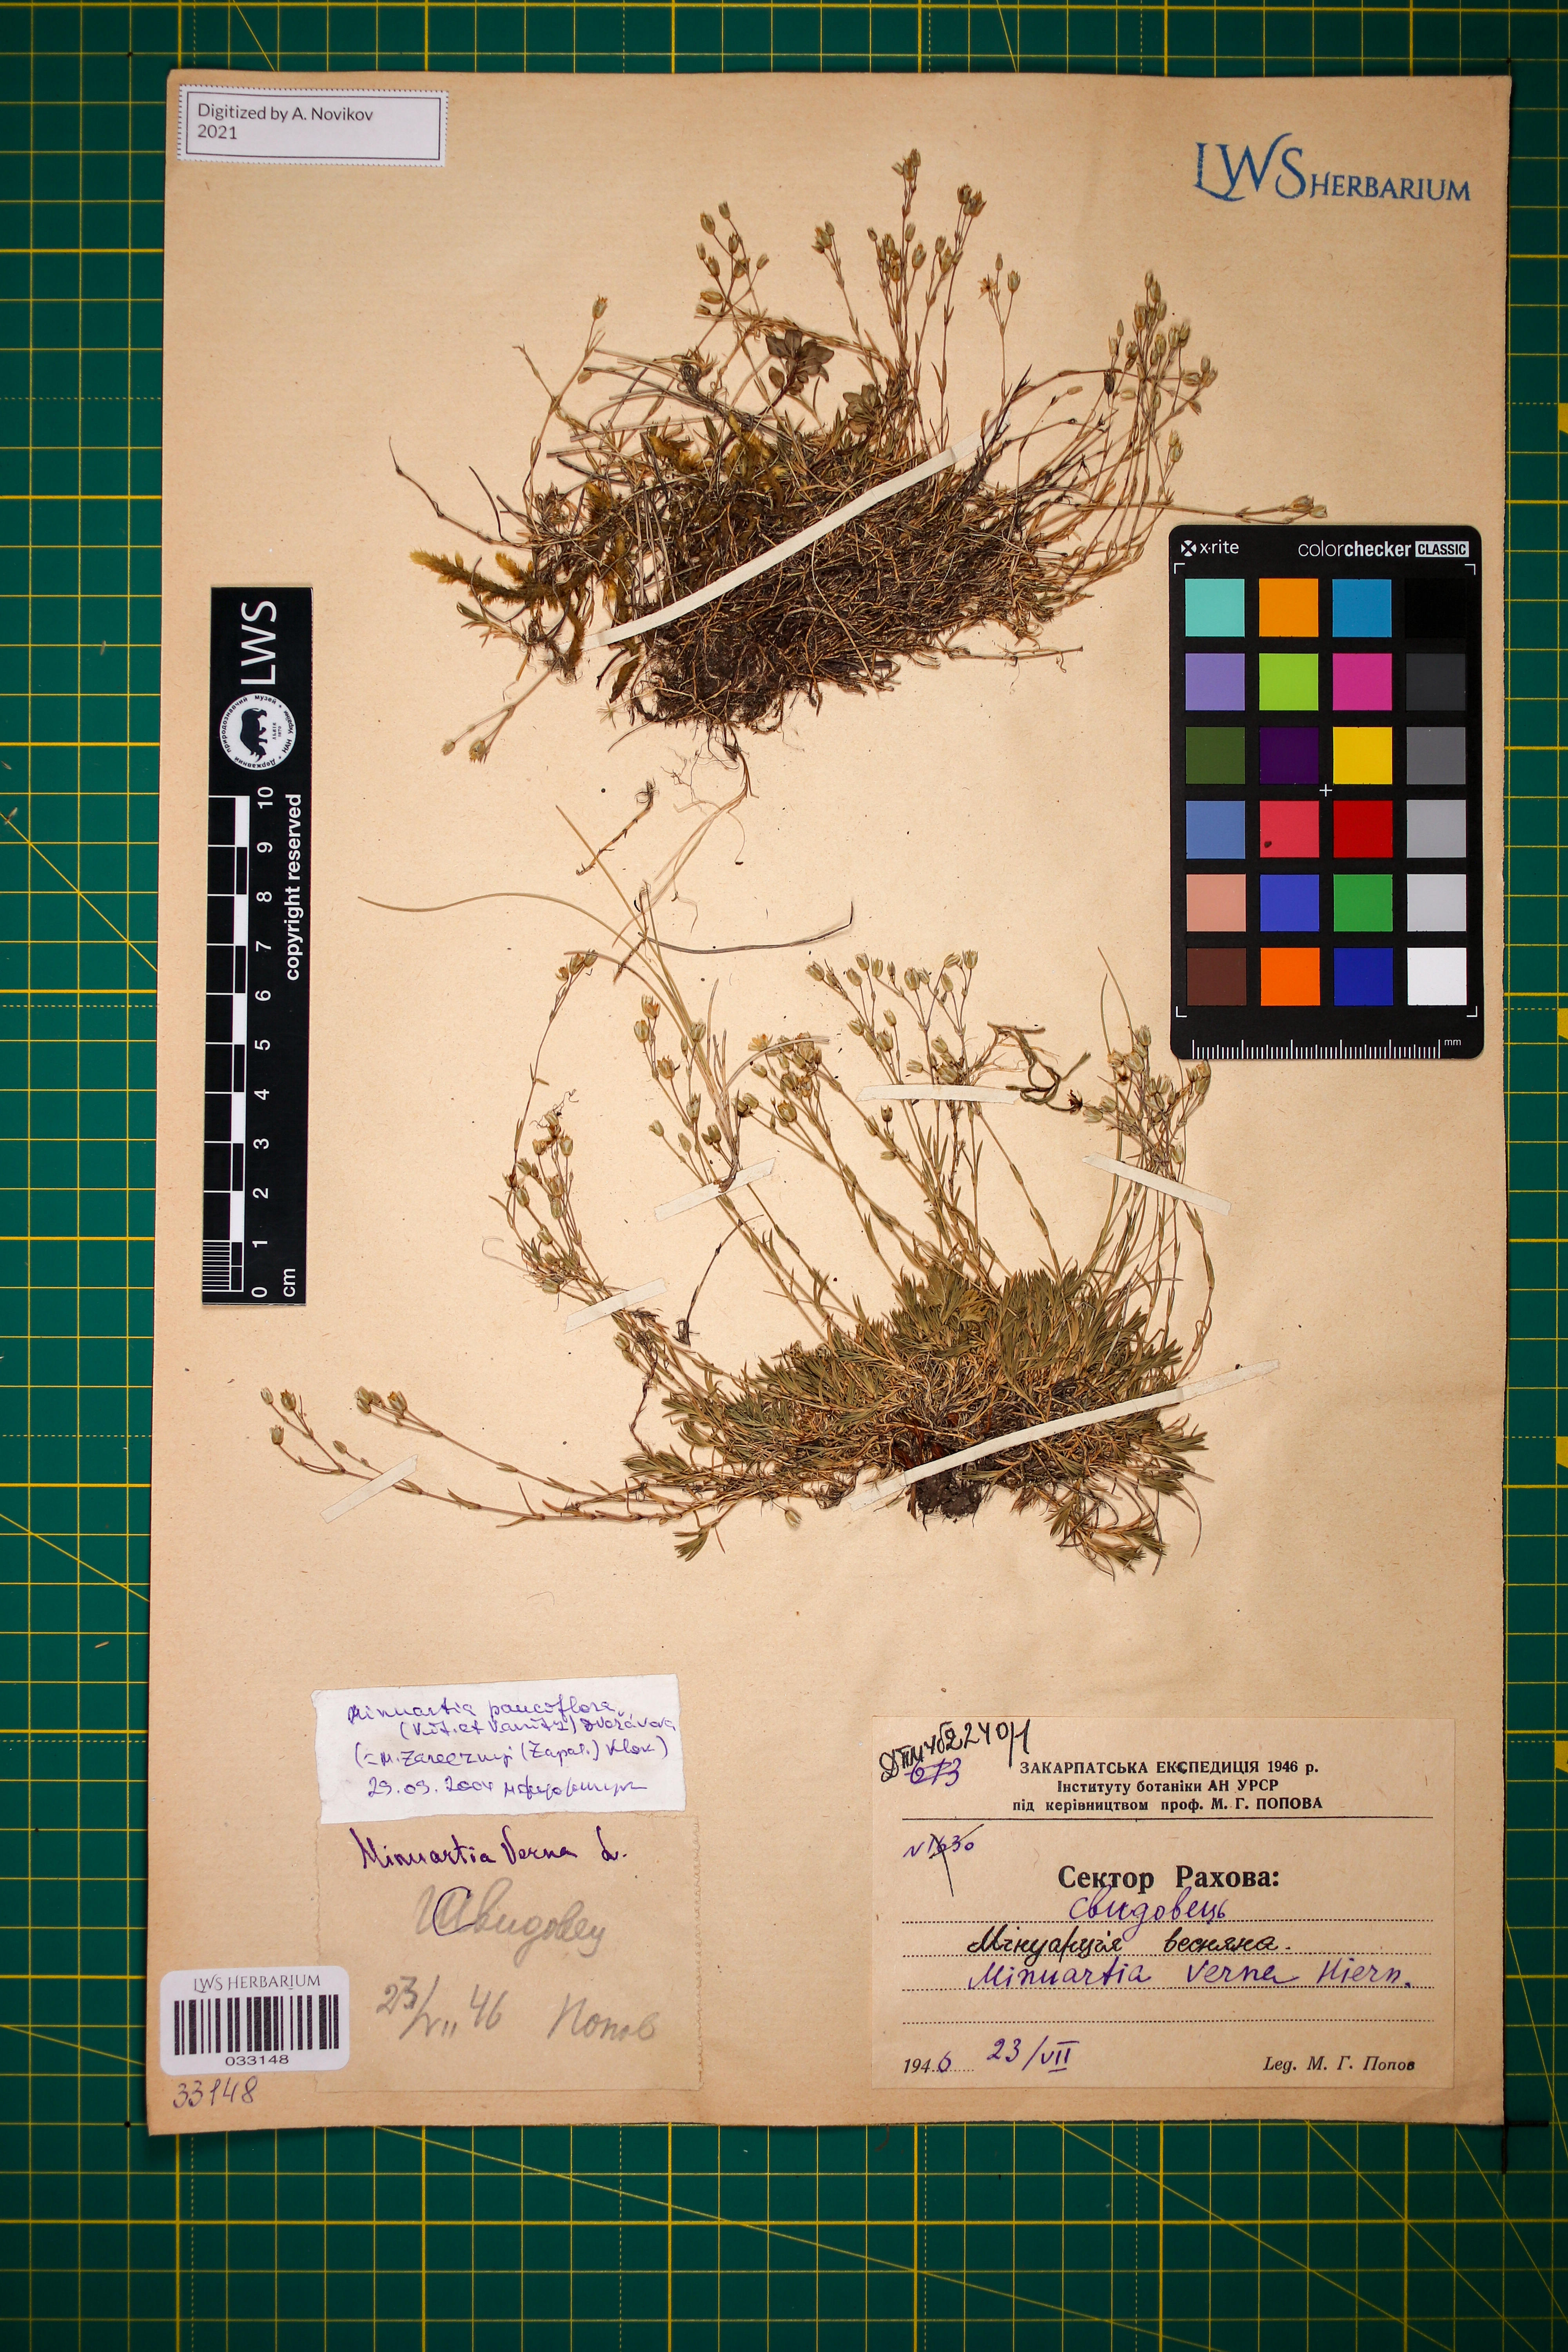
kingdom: Plantae
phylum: Tracheophyta
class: Magnoliopsida
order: Caryophyllales
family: Caryophyllaceae
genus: Minuartia
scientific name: Minuartia pauciflora
